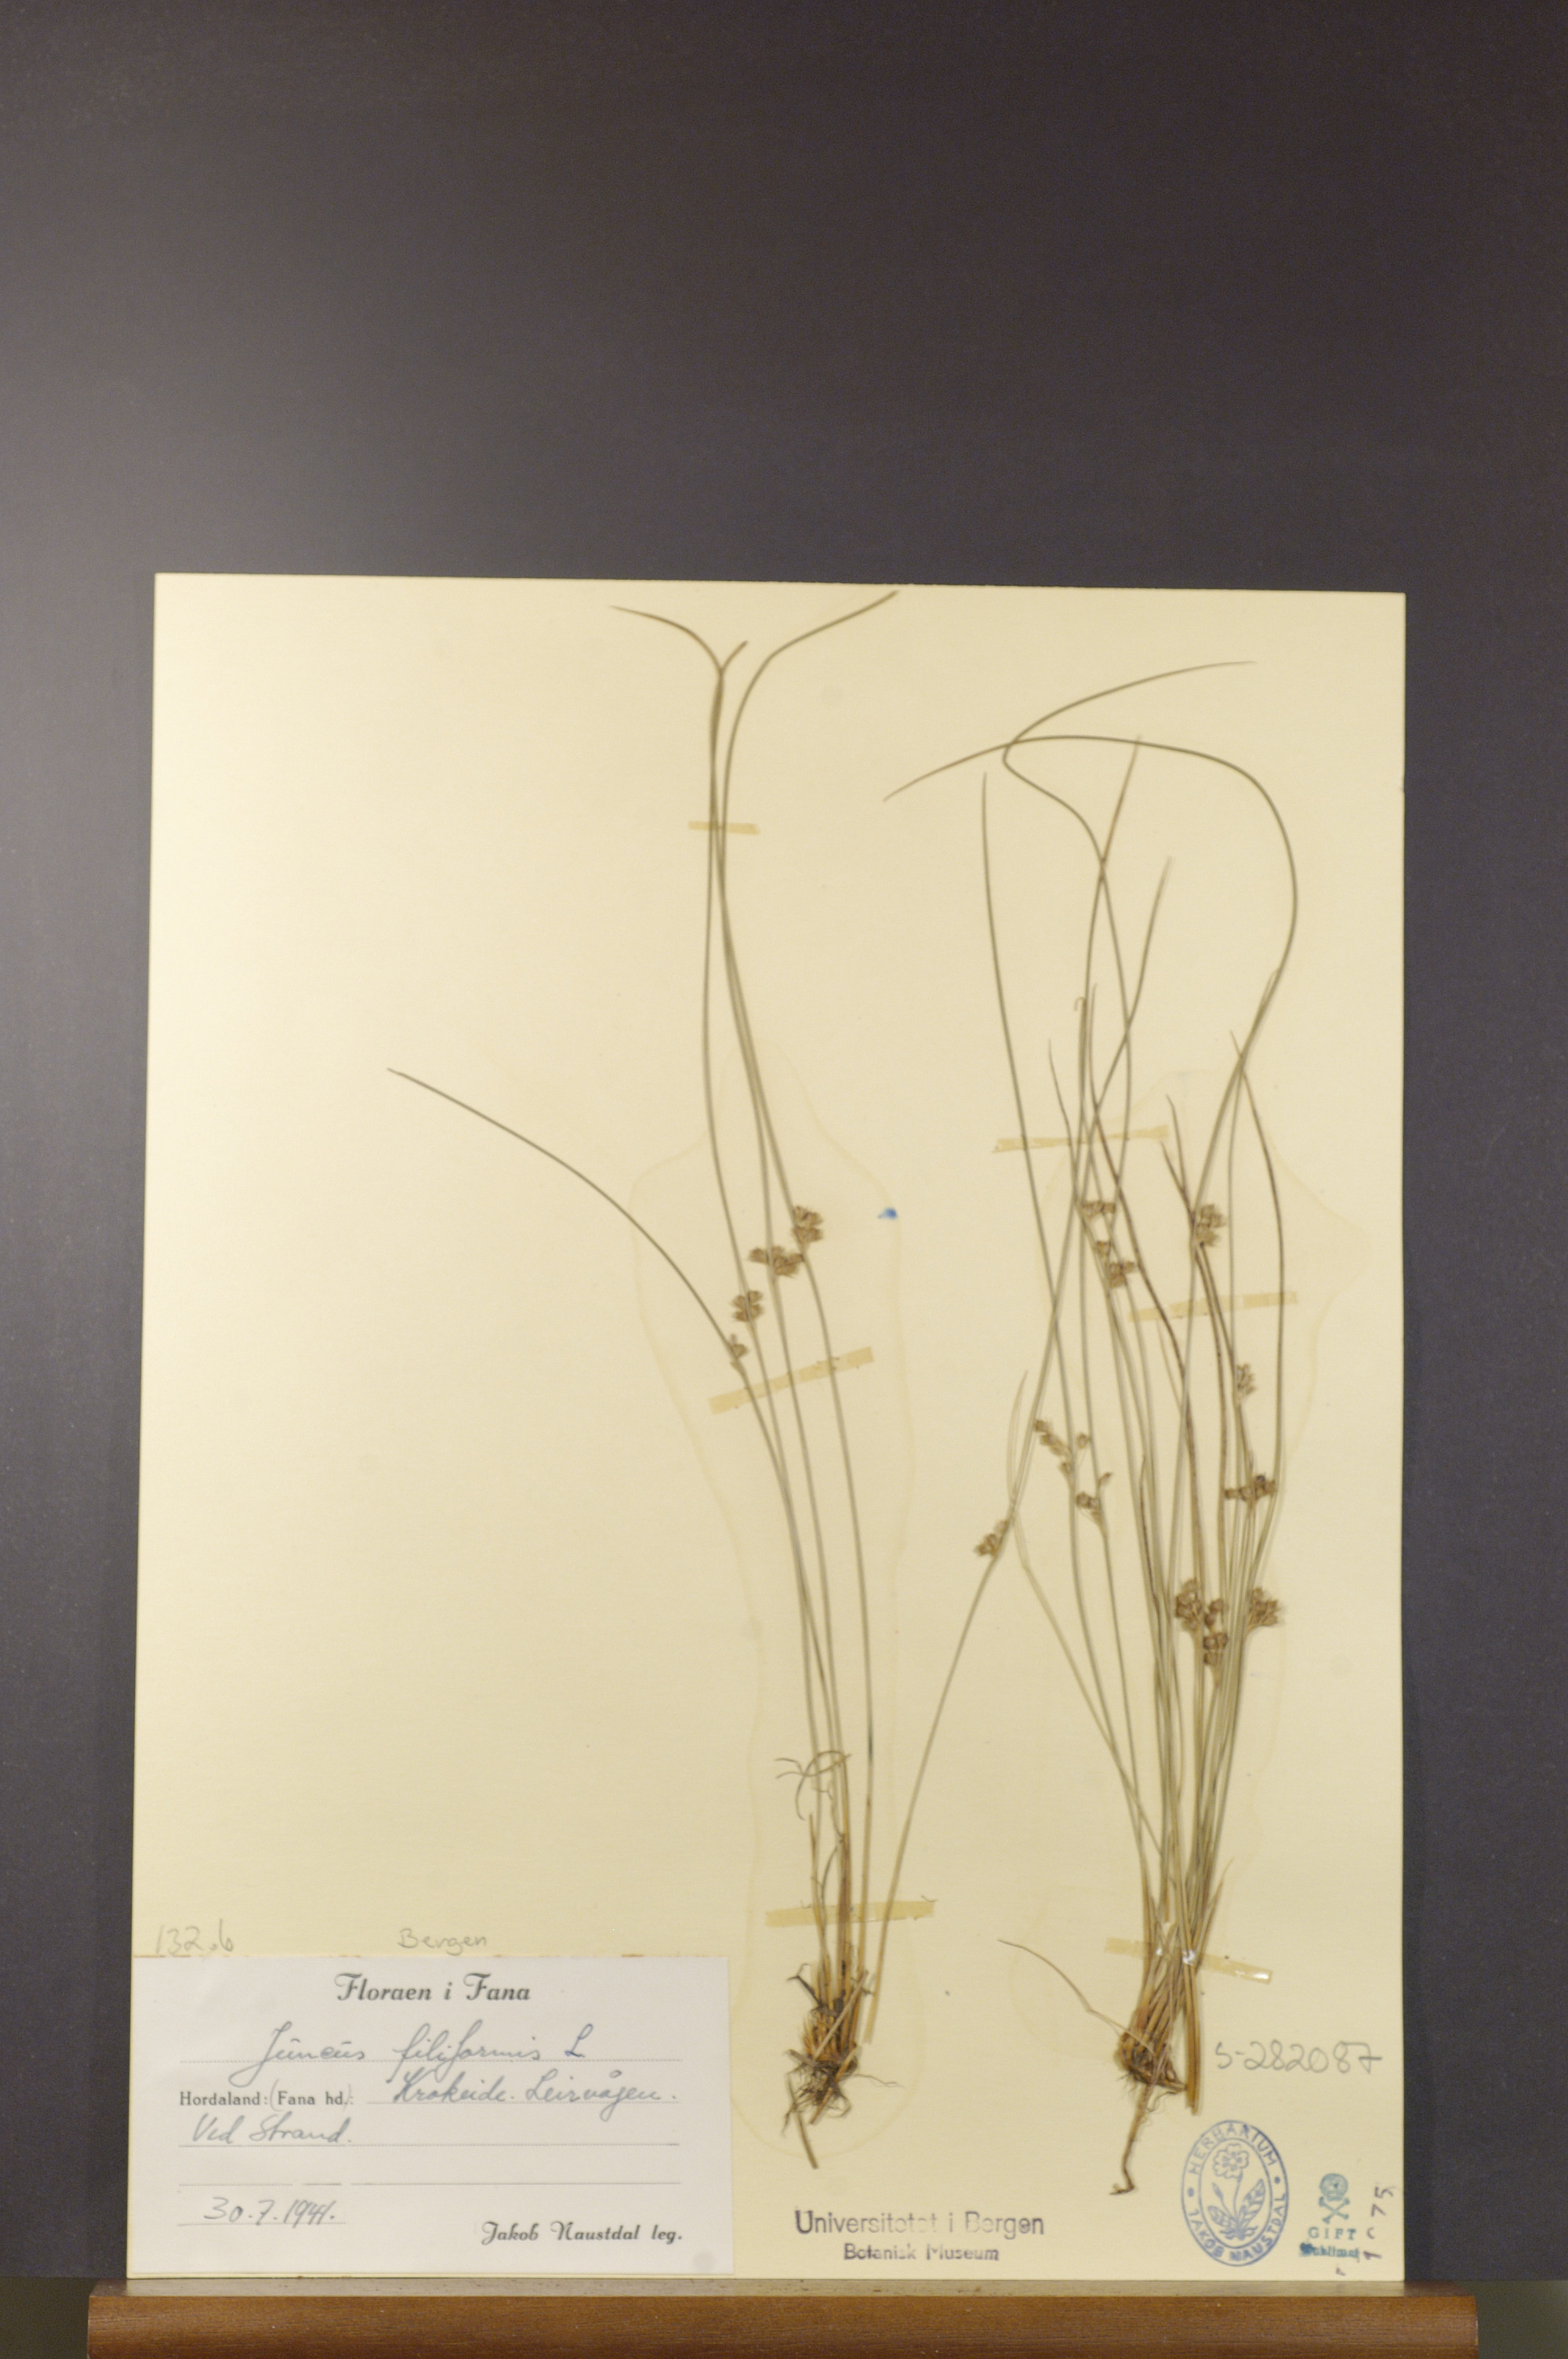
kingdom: Plantae
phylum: Tracheophyta
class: Liliopsida
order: Poales
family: Juncaceae
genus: Juncus
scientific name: Juncus filiformis
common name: Thread rush
